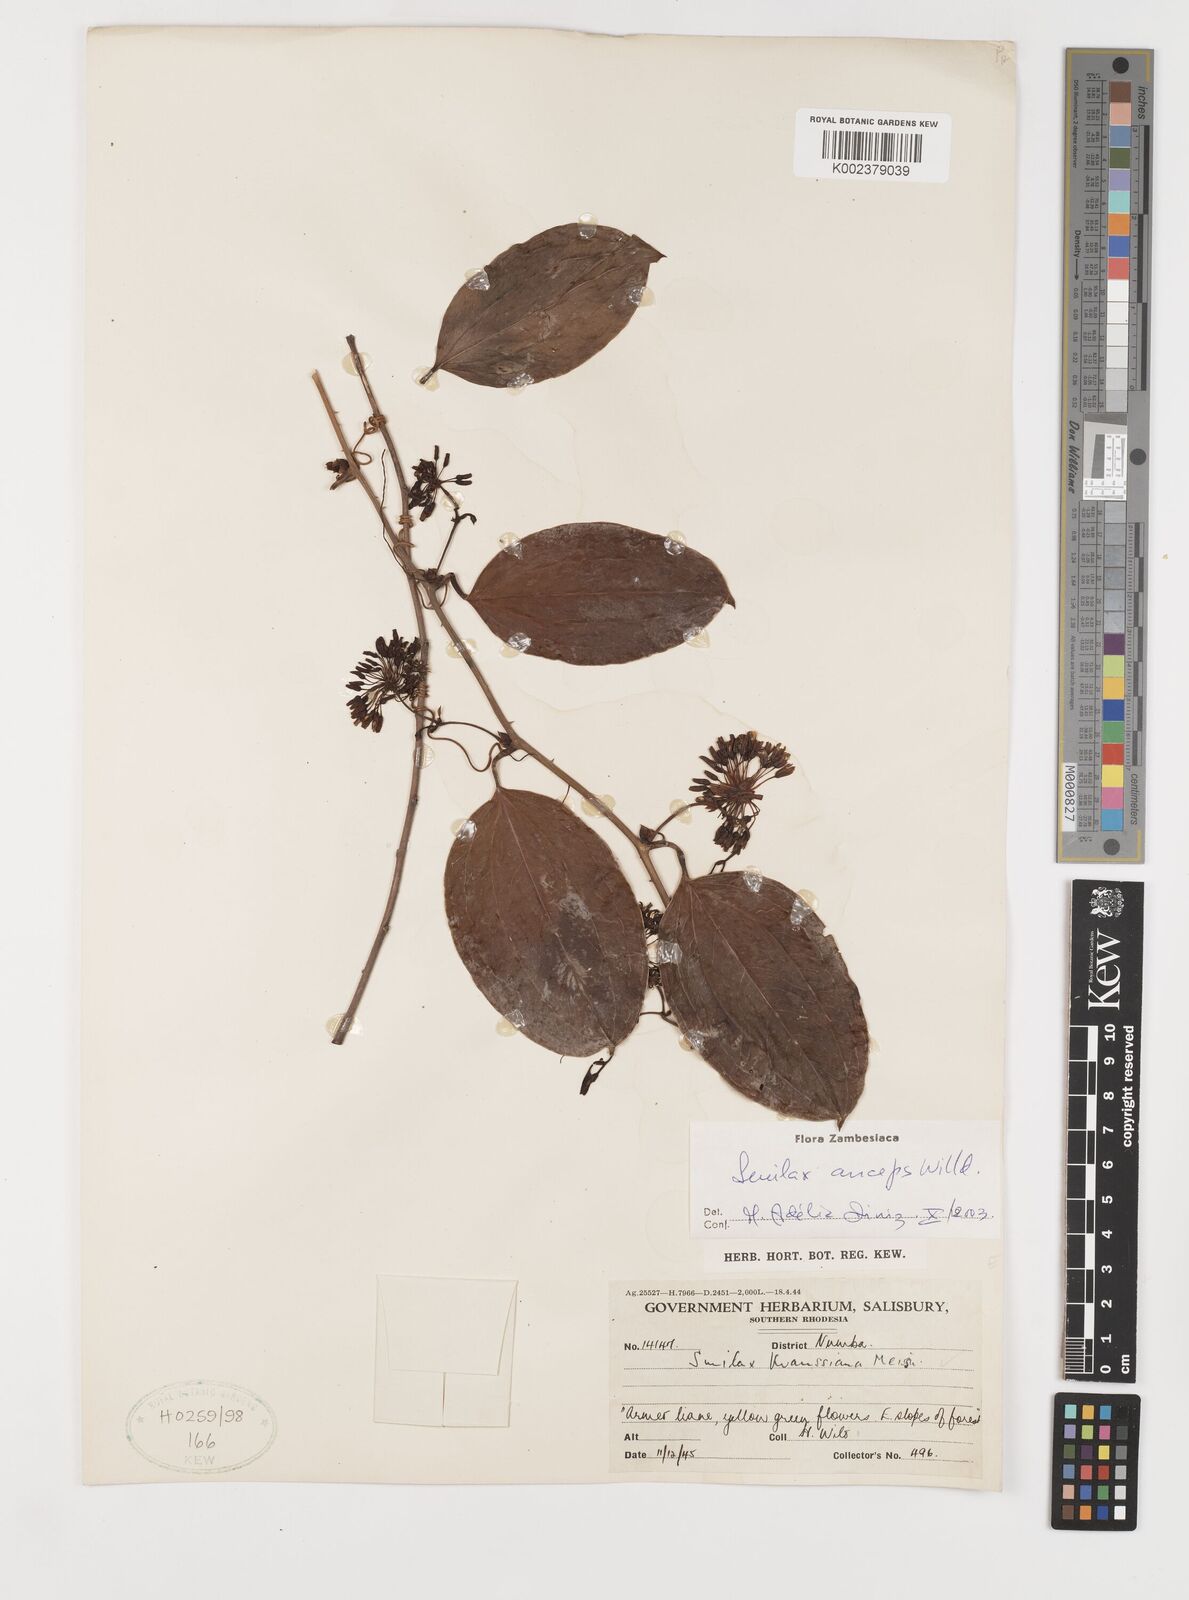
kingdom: Plantae
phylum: Tracheophyta
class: Liliopsida
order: Liliales
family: Smilacaceae
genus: Smilax
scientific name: Smilax anceps
